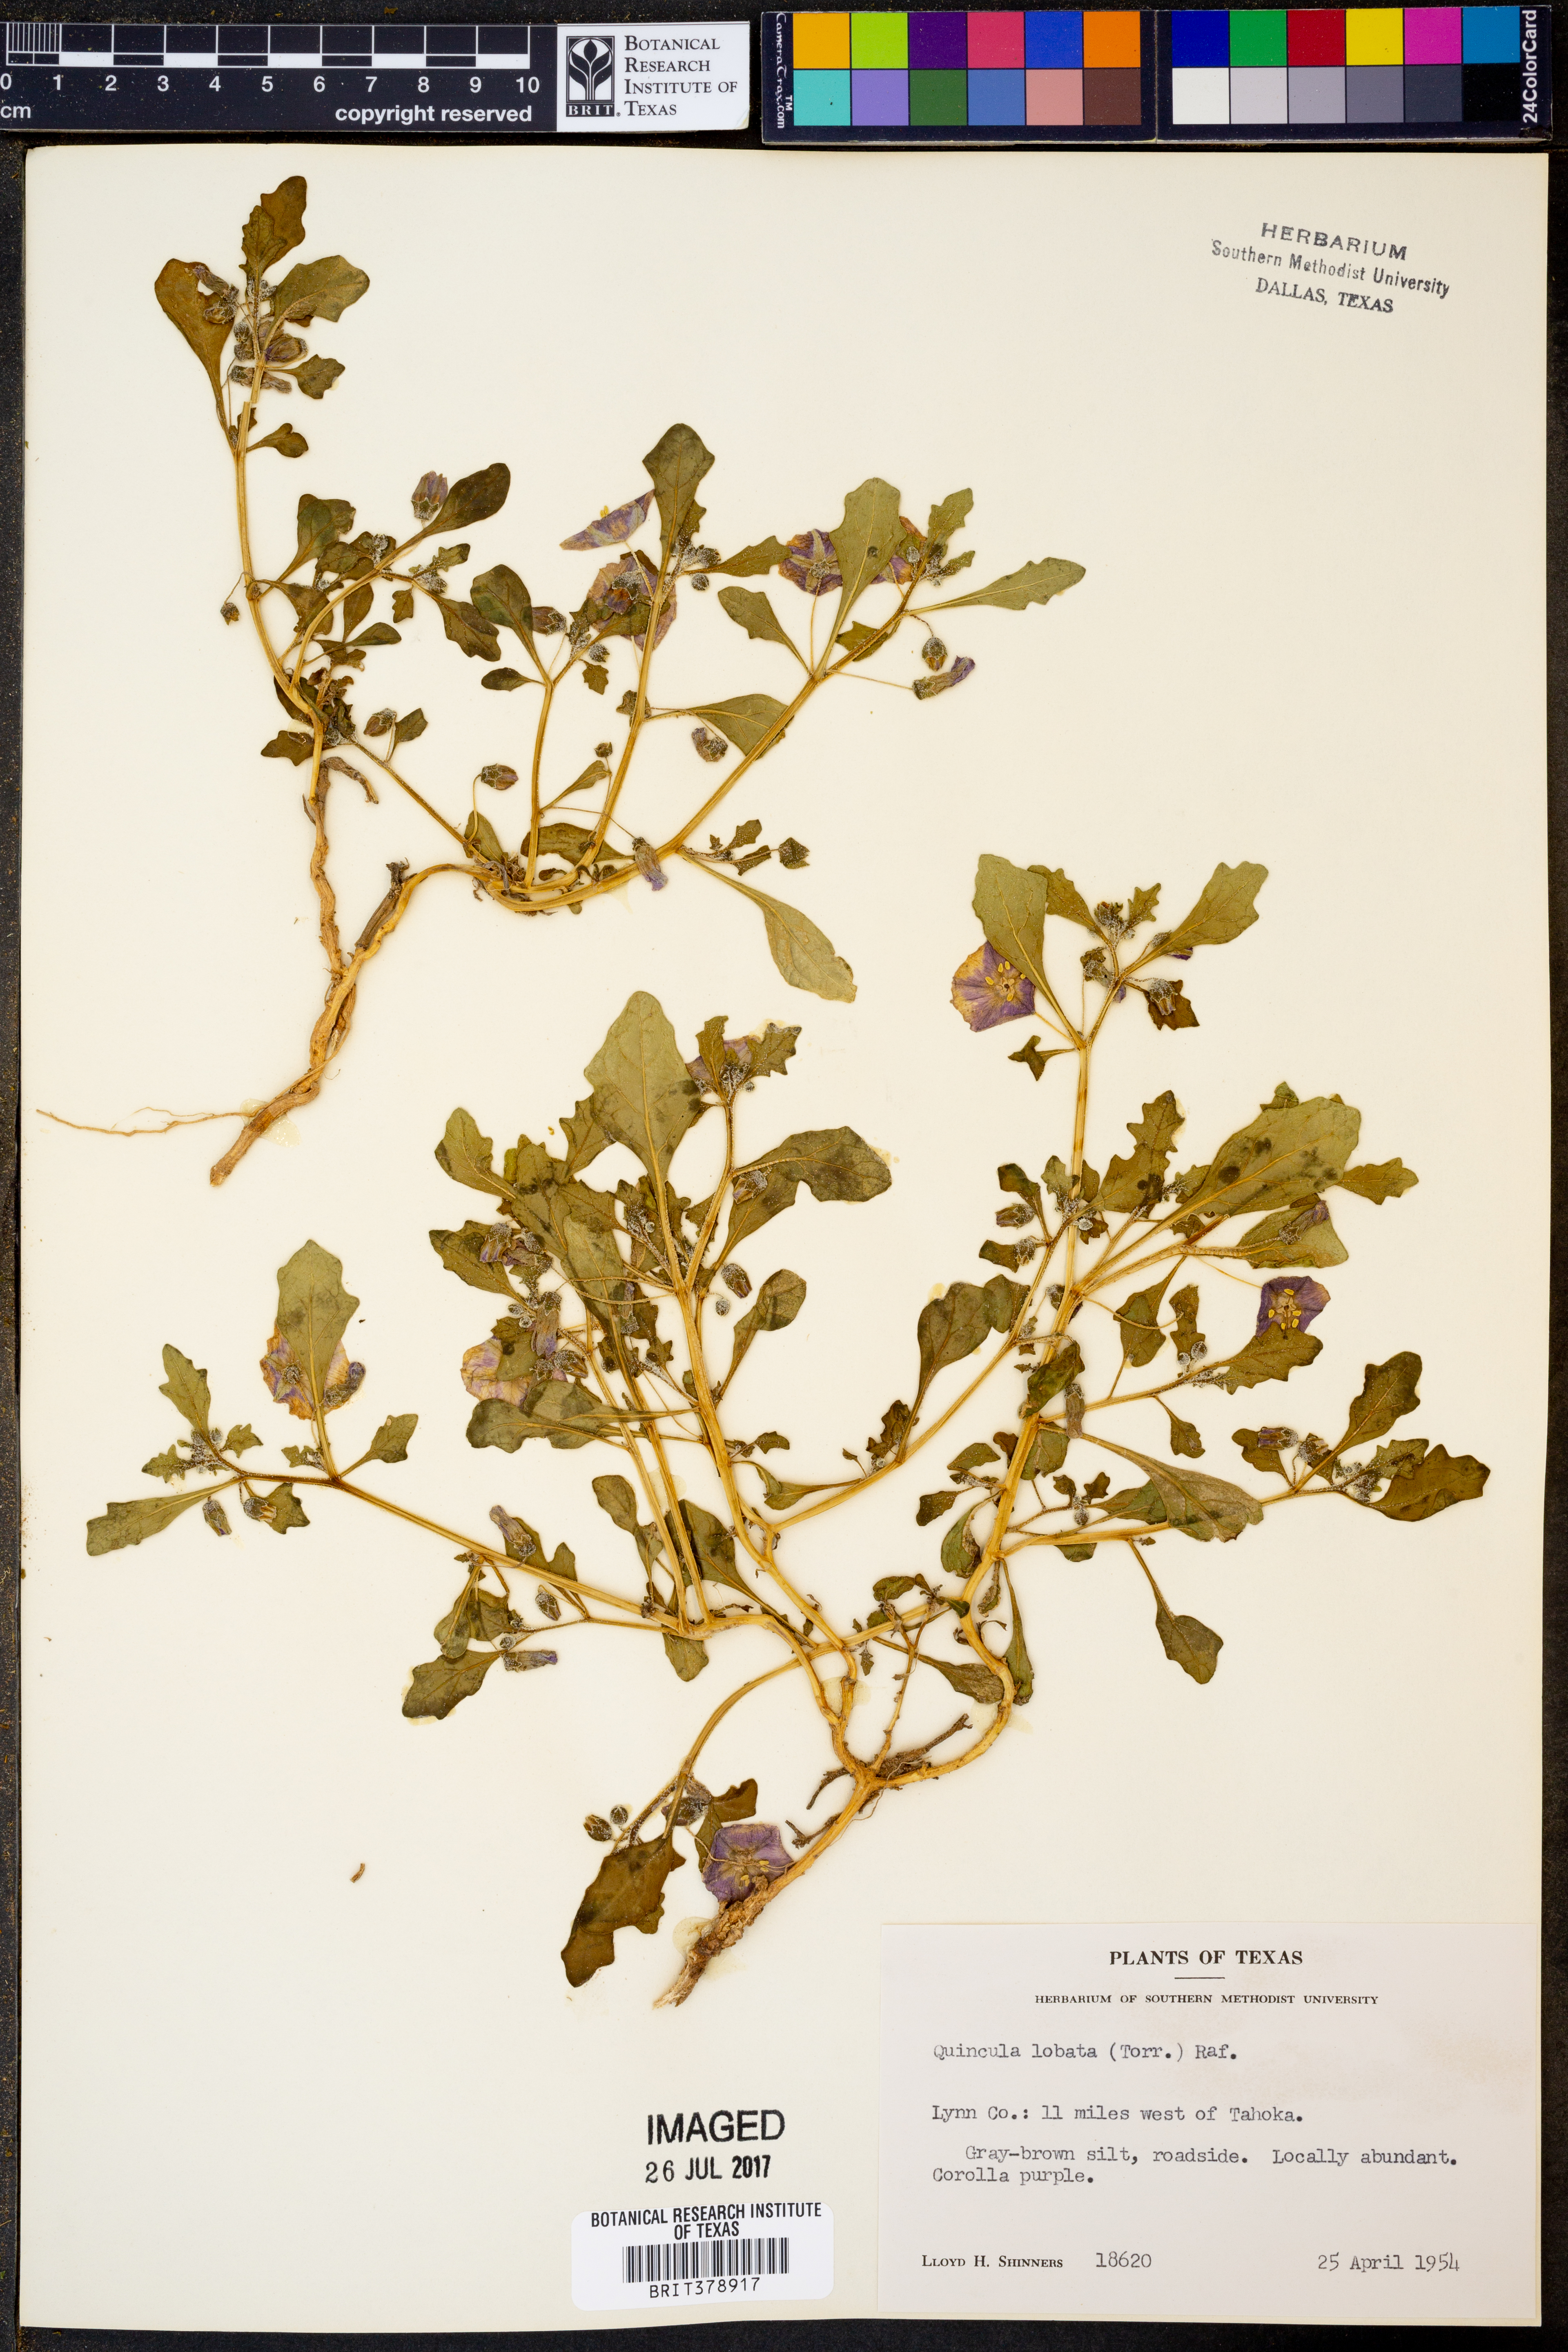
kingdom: Plantae
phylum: Tracheophyta
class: Magnoliopsida
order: Solanales
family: Solanaceae
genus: Quincula
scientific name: Quincula lobata
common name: Purple-ground-cherry
